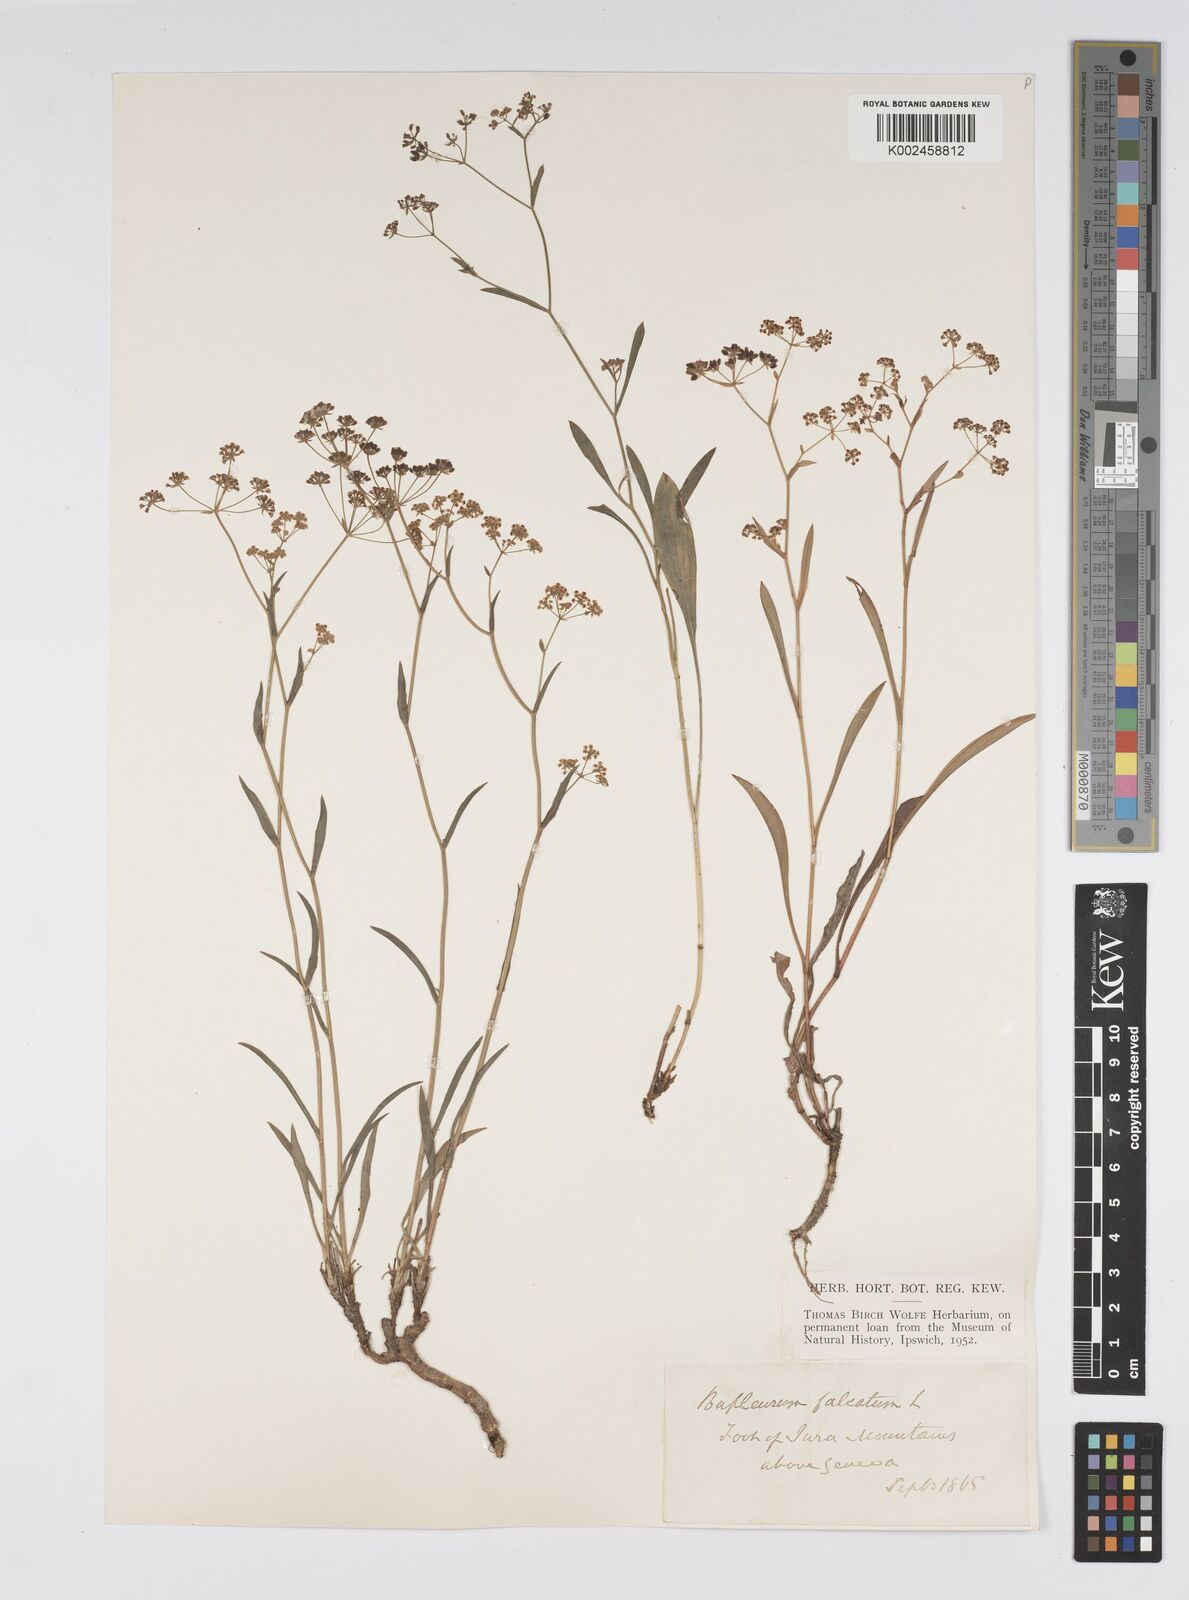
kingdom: Plantae
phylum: Tracheophyta
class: Magnoliopsida
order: Apiales
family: Apiaceae
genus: Bupleurum
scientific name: Bupleurum falcatum
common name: Sickle-leaved hare's-ear
